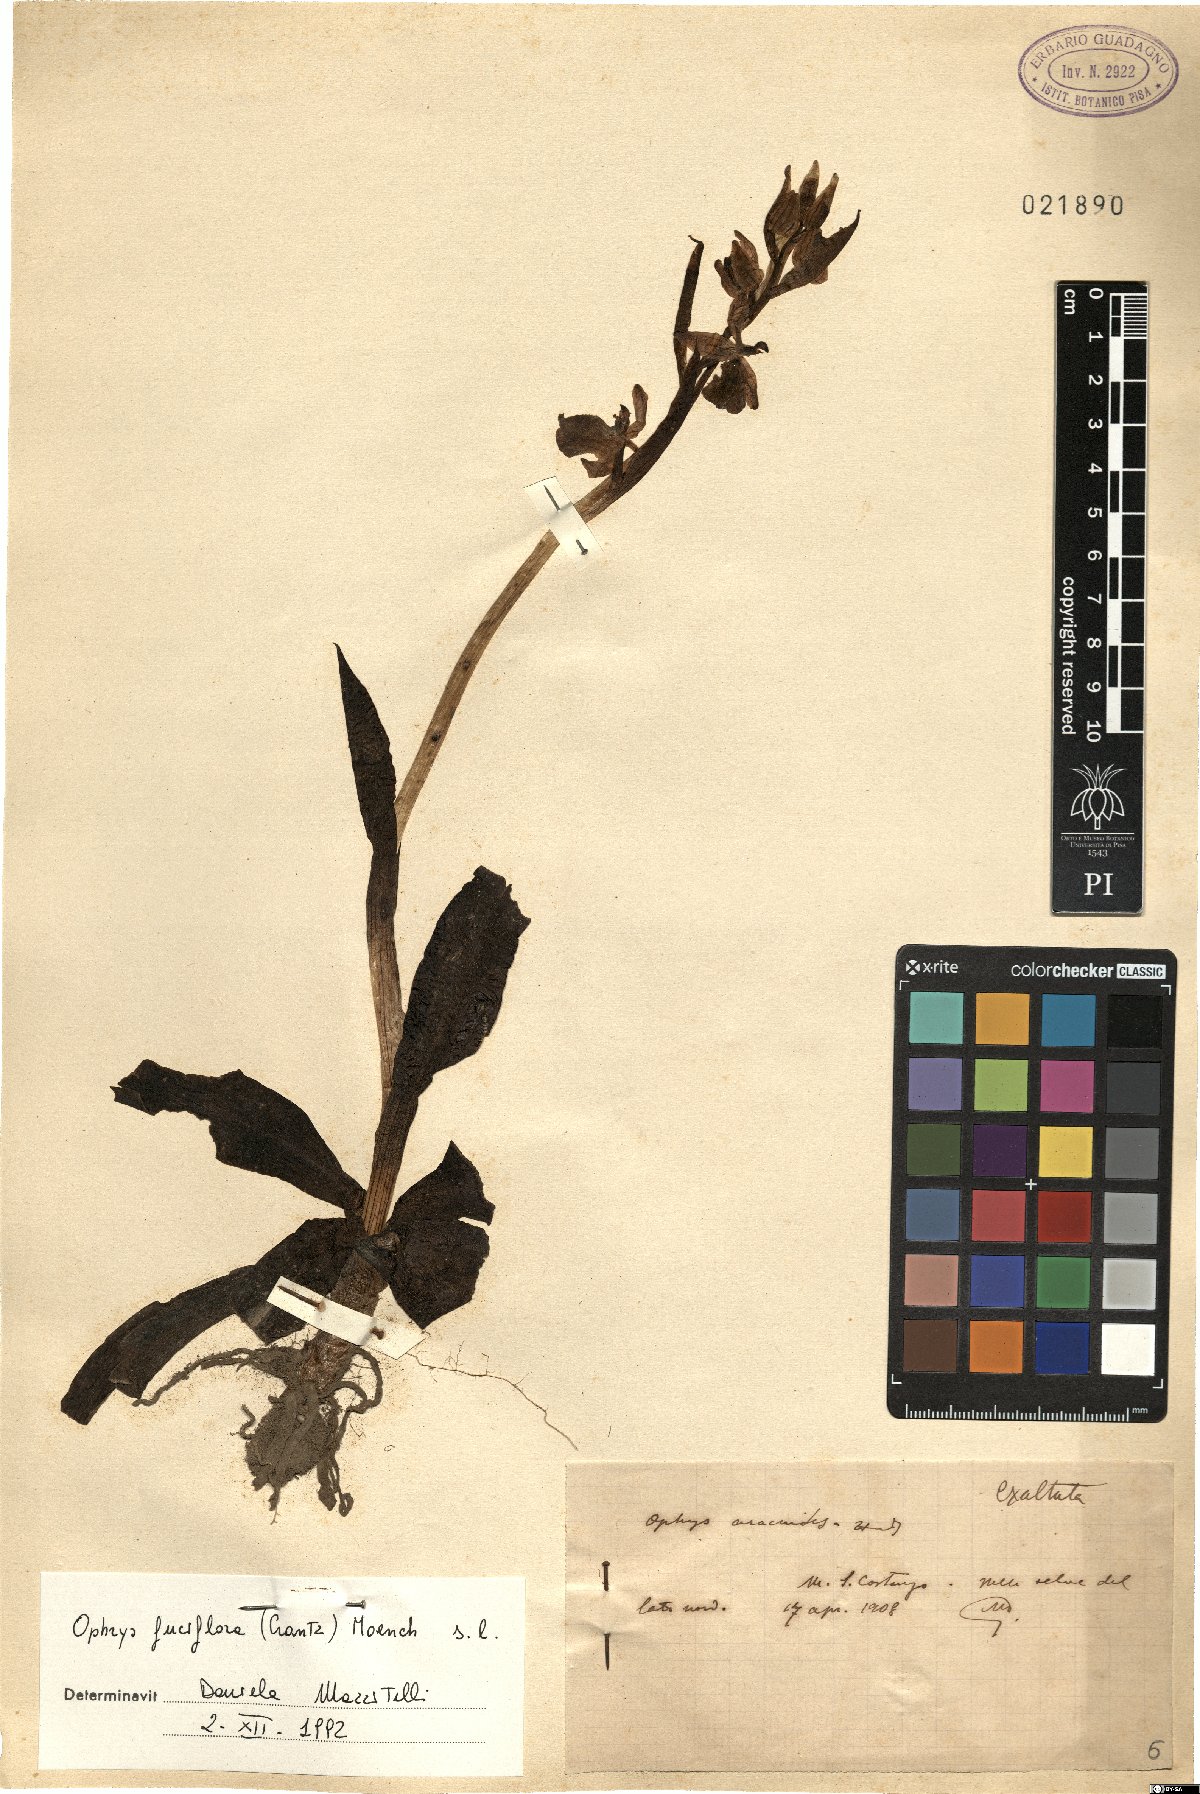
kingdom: Plantae
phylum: Tracheophyta
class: Liliopsida
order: Asparagales
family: Orchidaceae
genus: Ophrys
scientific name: Ophrys holosericea
